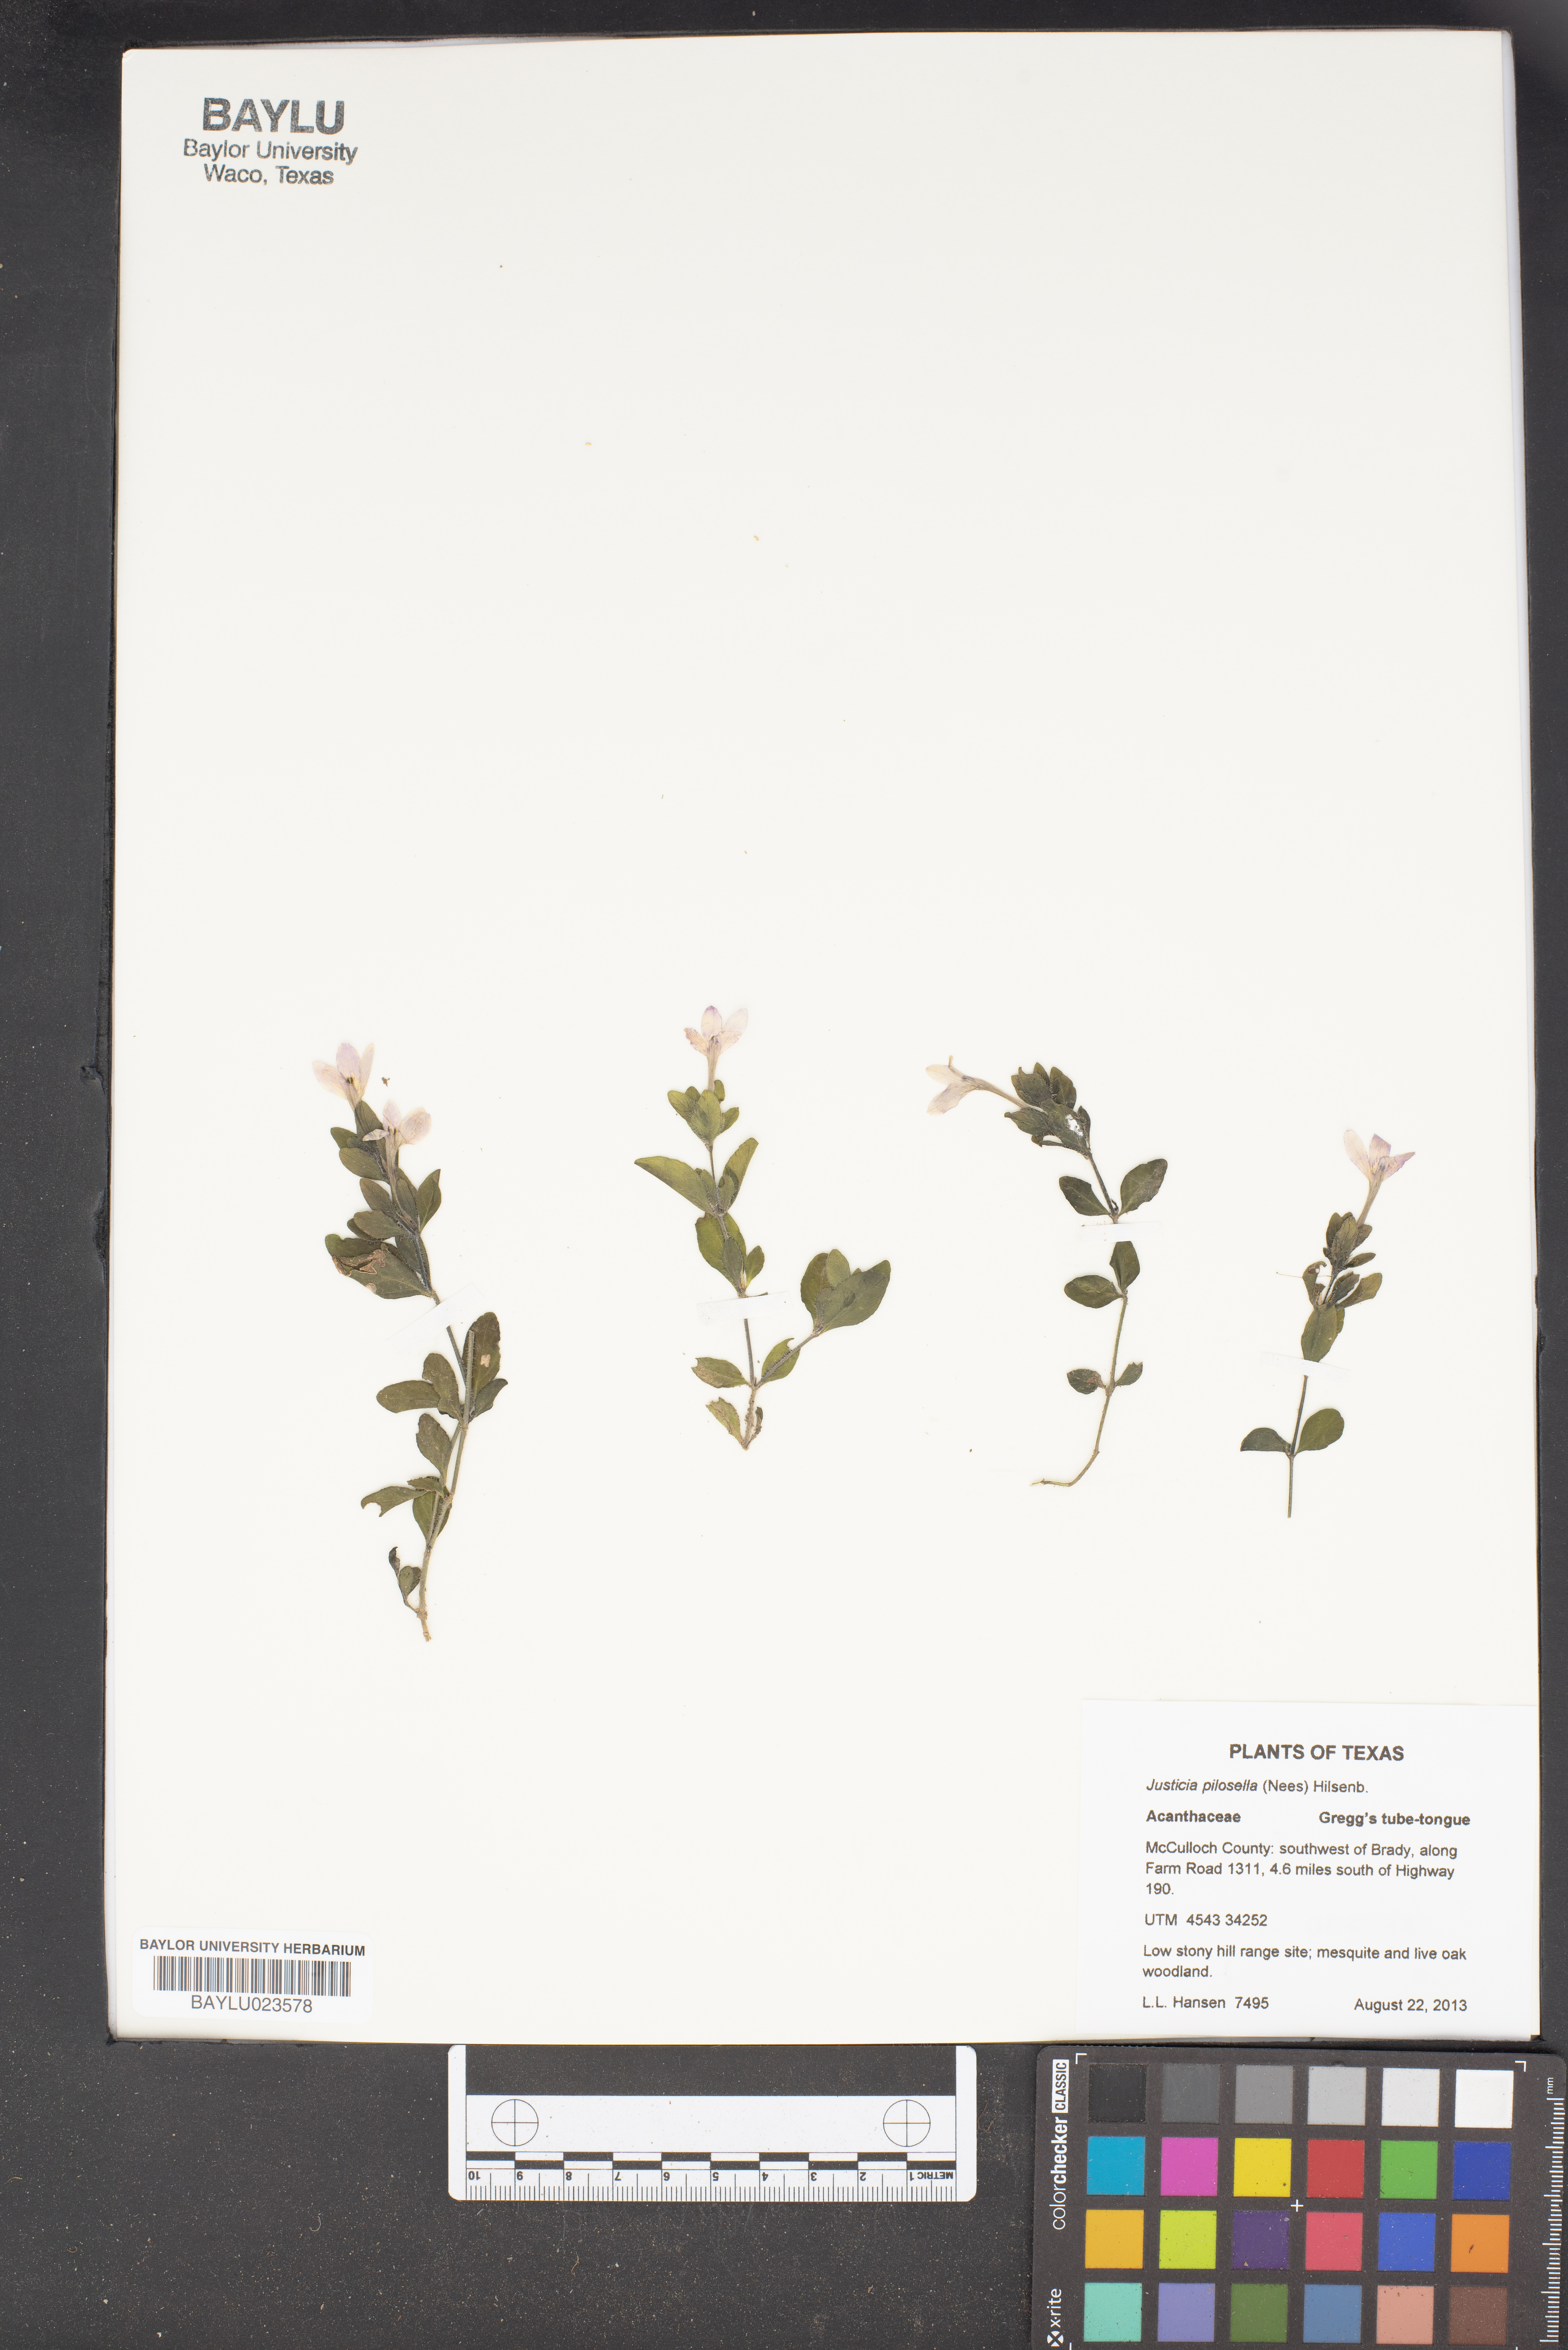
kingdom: Plantae
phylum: Tracheophyta
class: Magnoliopsida
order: Lamiales
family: Acanthaceae
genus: Justicia
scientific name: Justicia pilosella
